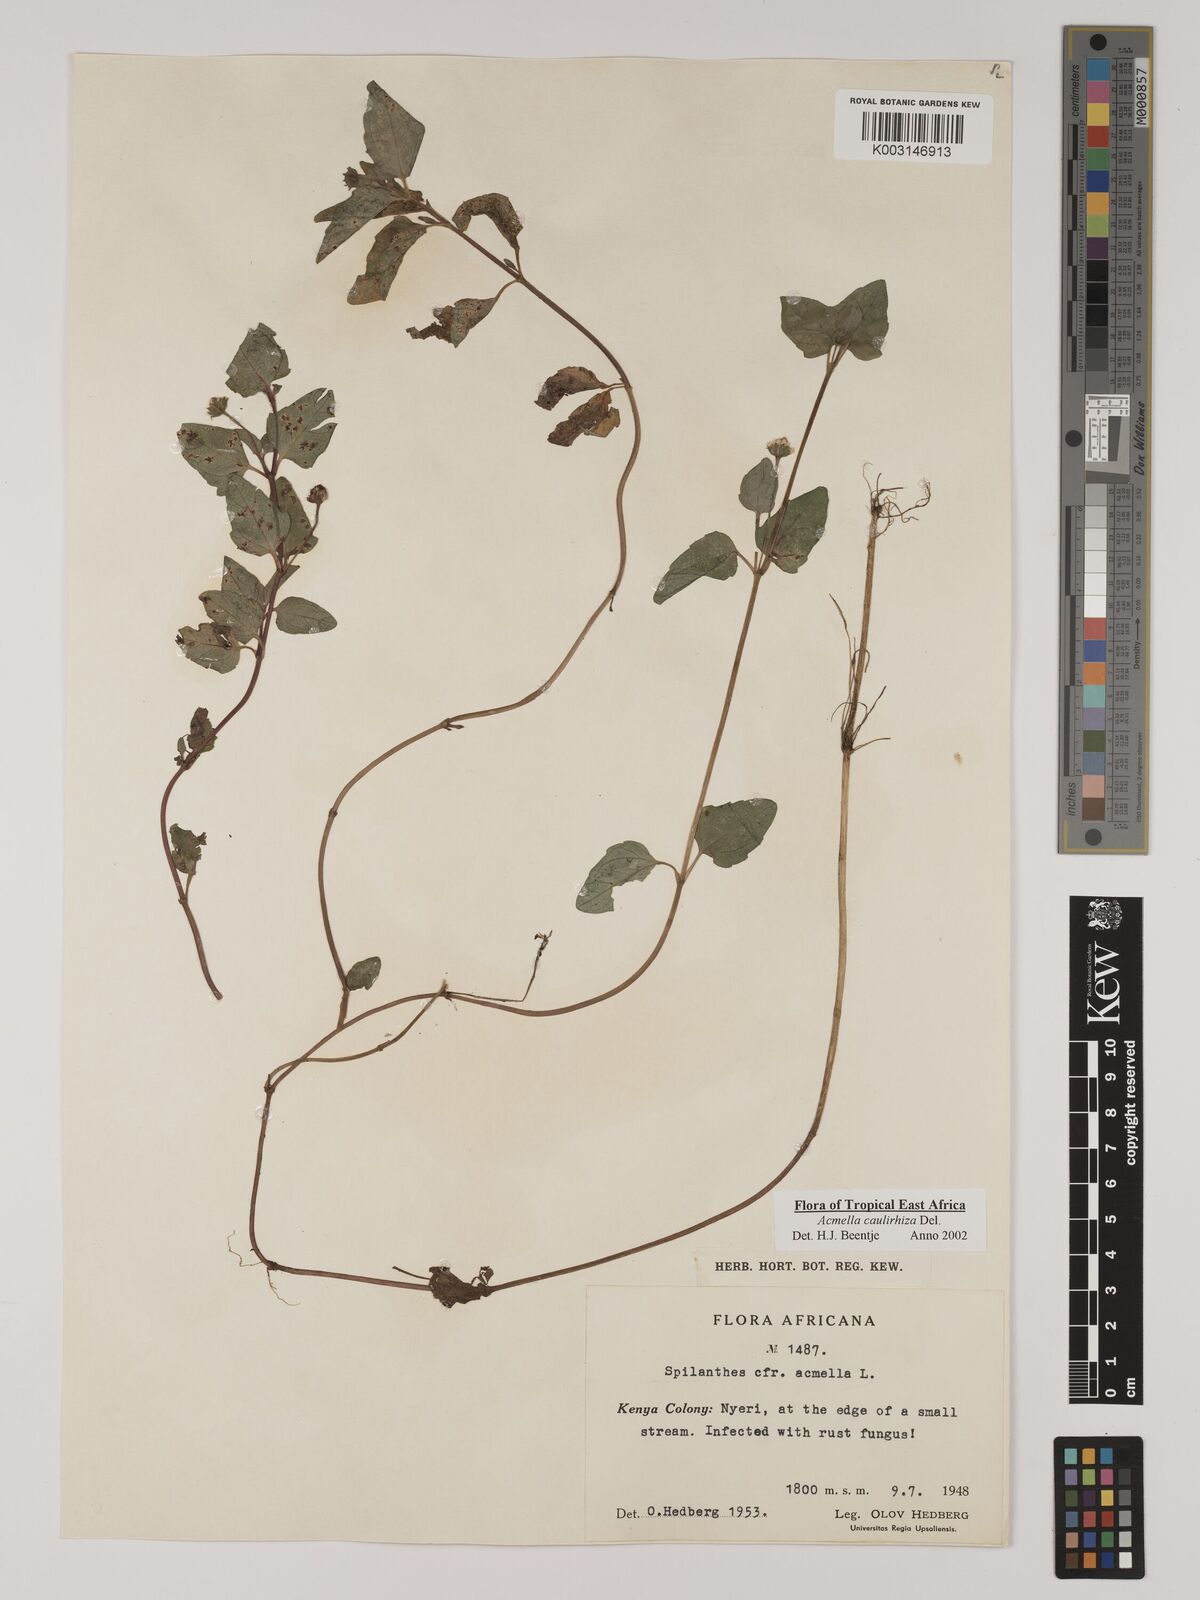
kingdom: Plantae
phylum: Tracheophyta
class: Magnoliopsida
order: Asterales
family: Asteraceae
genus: Acmella
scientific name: Acmella caulirhiza
